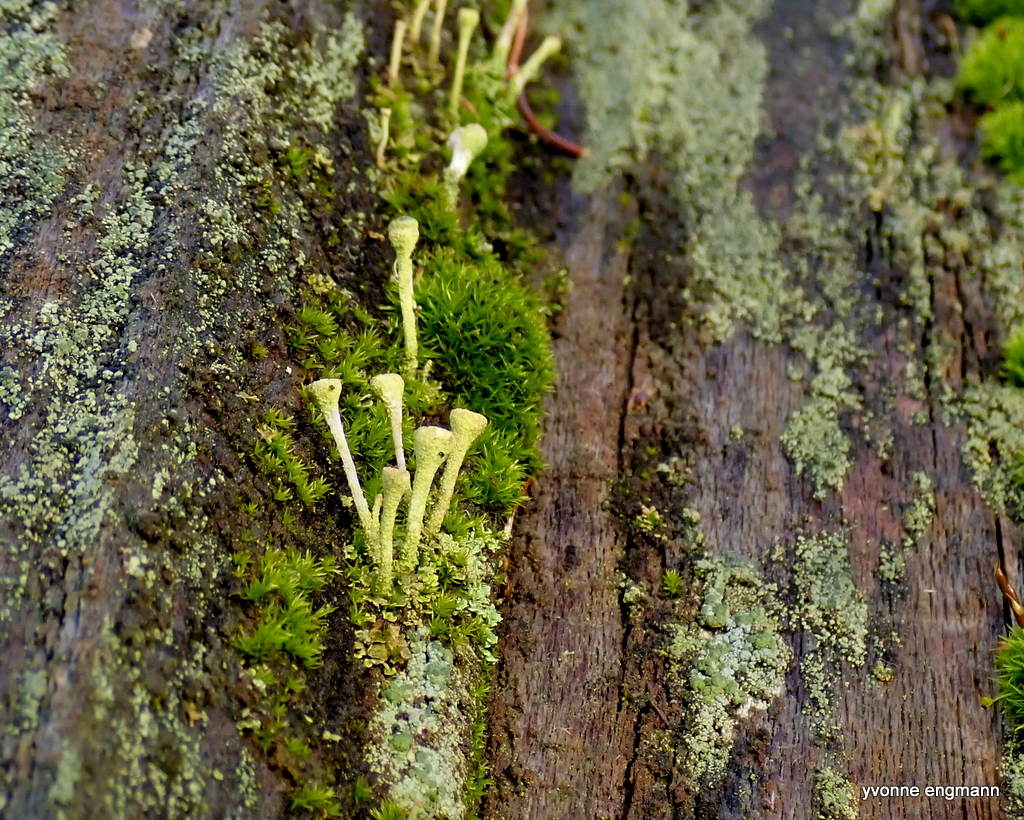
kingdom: Fungi
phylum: Ascomycota
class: Lecanoromycetes
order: Lecanorales
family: Cladoniaceae
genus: Cladonia
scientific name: Cladonia fimbriata
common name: bleggrøn bægerlav
